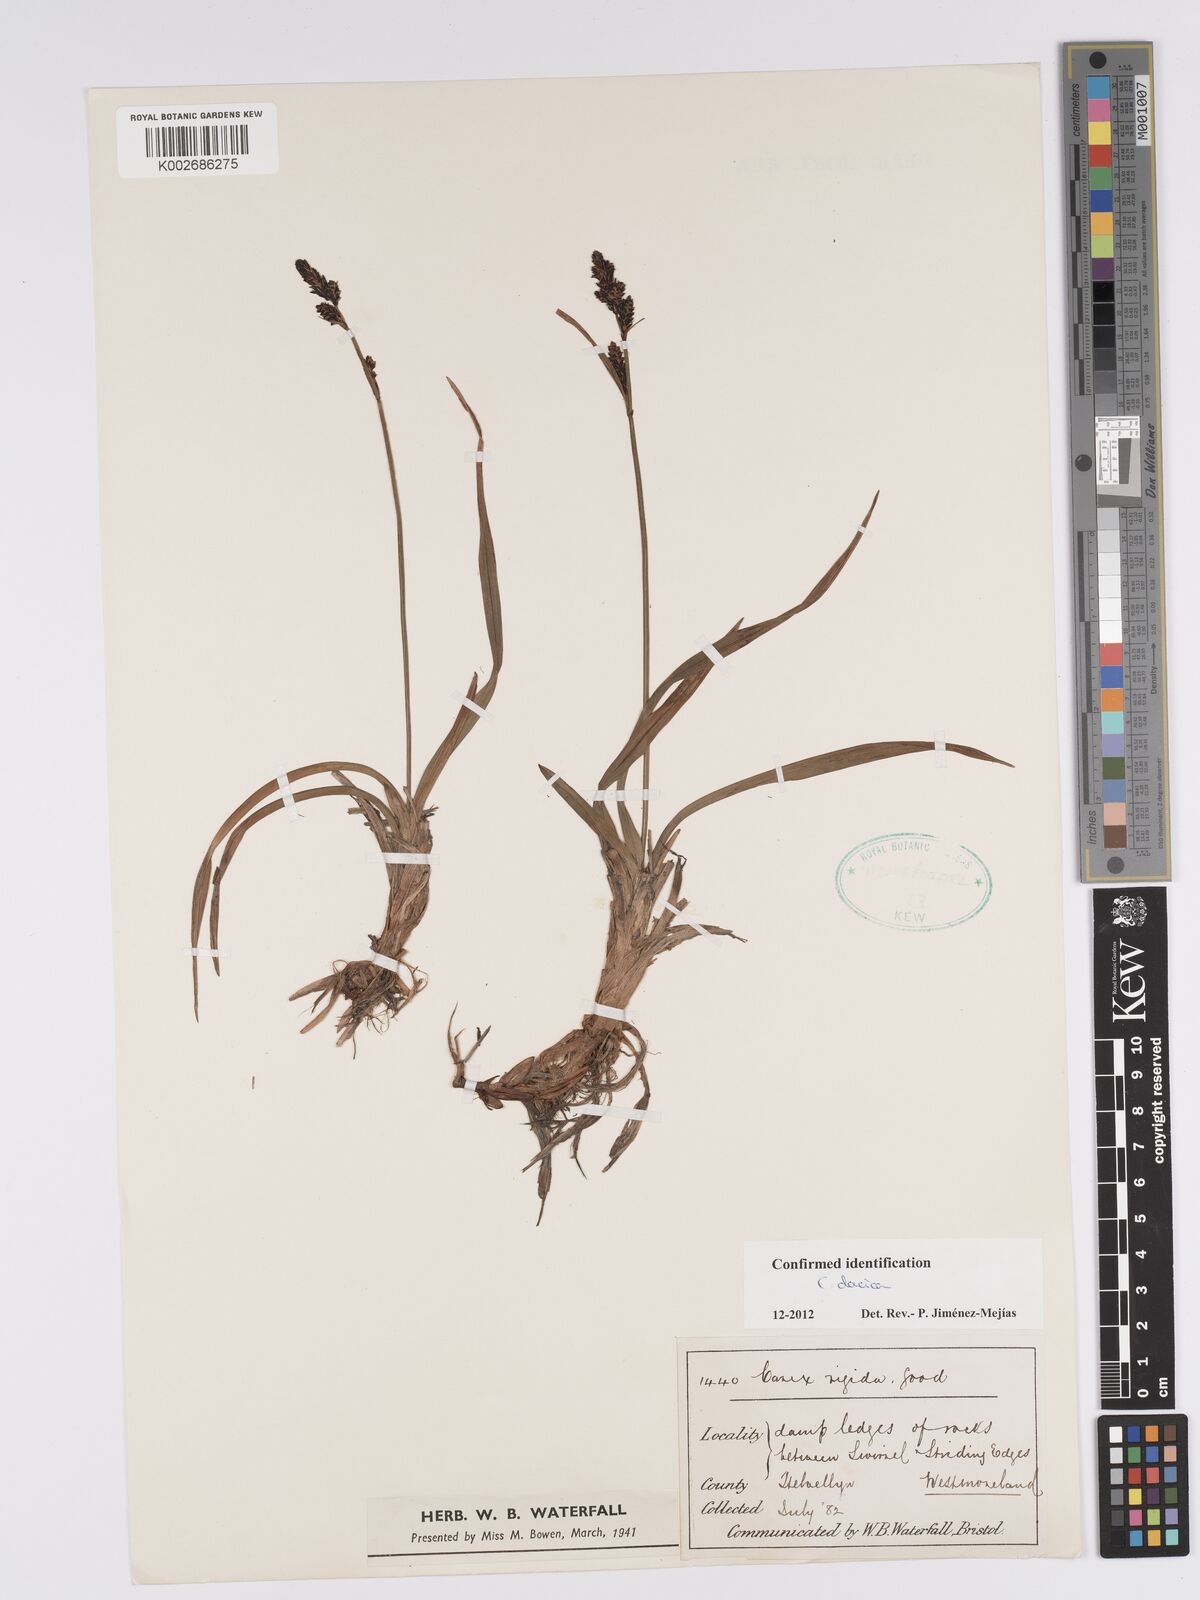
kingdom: Plantae
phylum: Tracheophyta
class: Liliopsida
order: Poales
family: Cyperaceae
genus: Carex
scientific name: Carex bigelowii
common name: Stiff sedge
